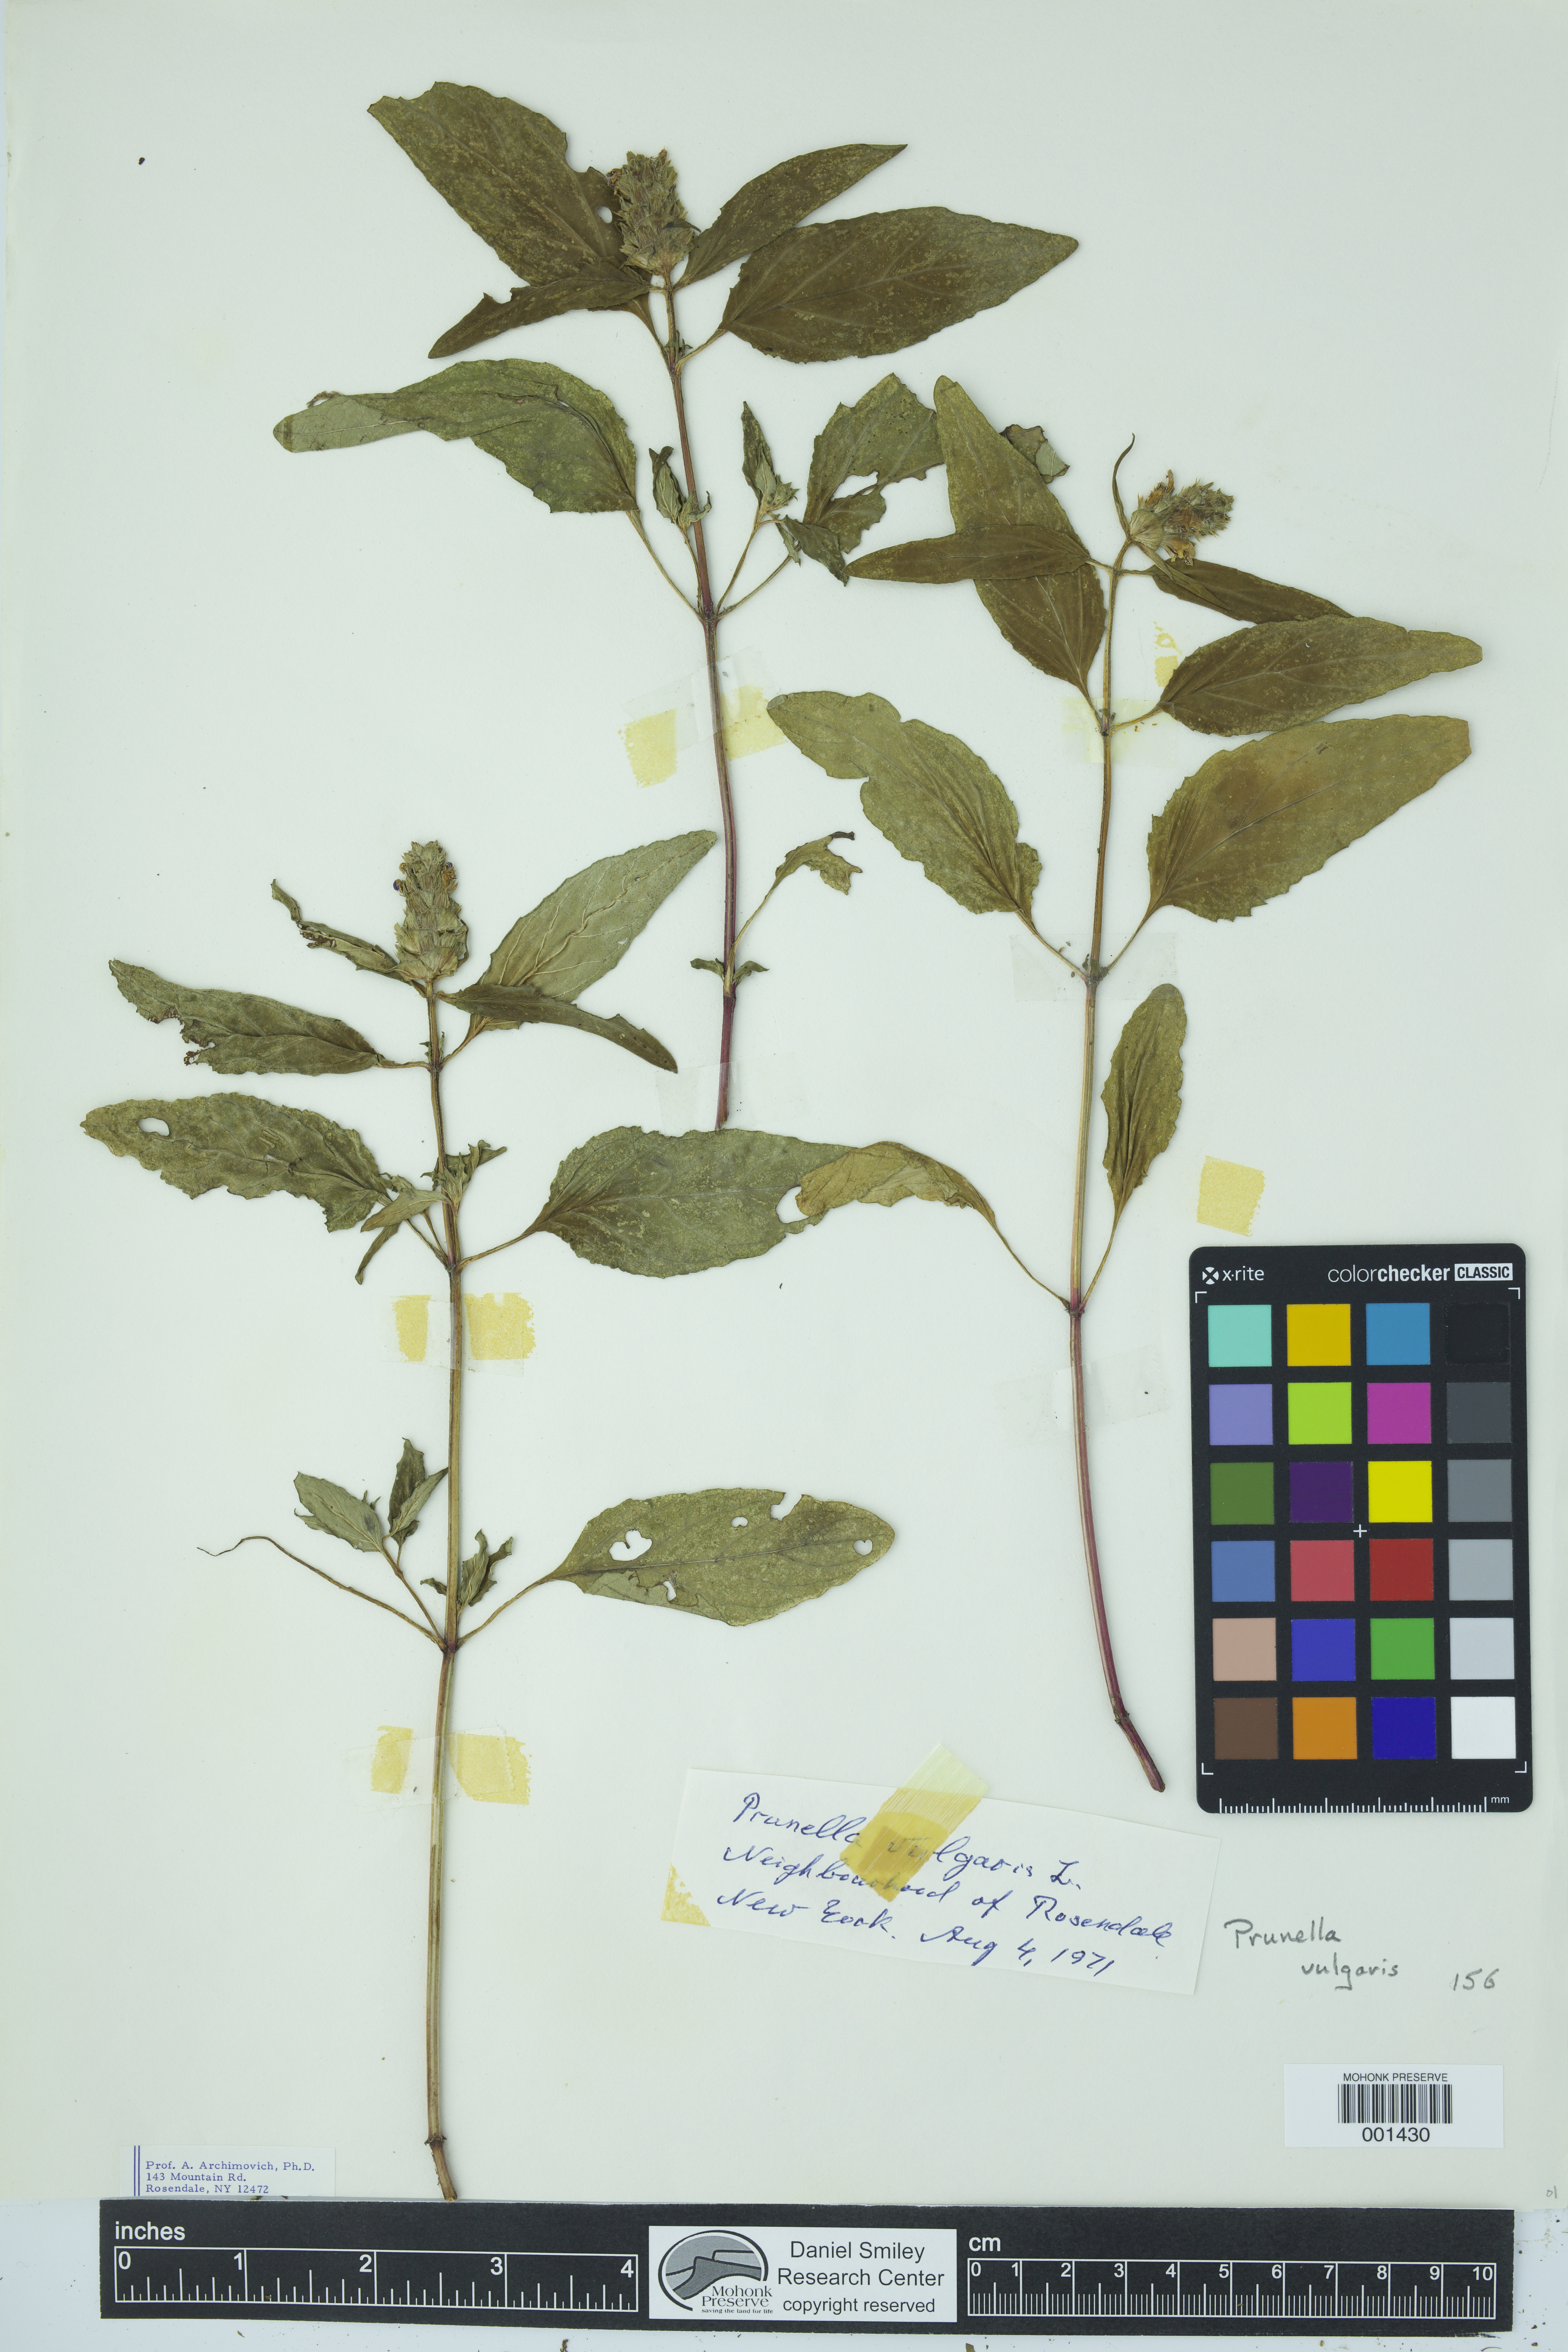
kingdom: Plantae
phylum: Tracheophyta
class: Magnoliopsida
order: Lamiales
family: Lamiaceae
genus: Prunella
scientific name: Prunella vulgaris
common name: Heal-all
